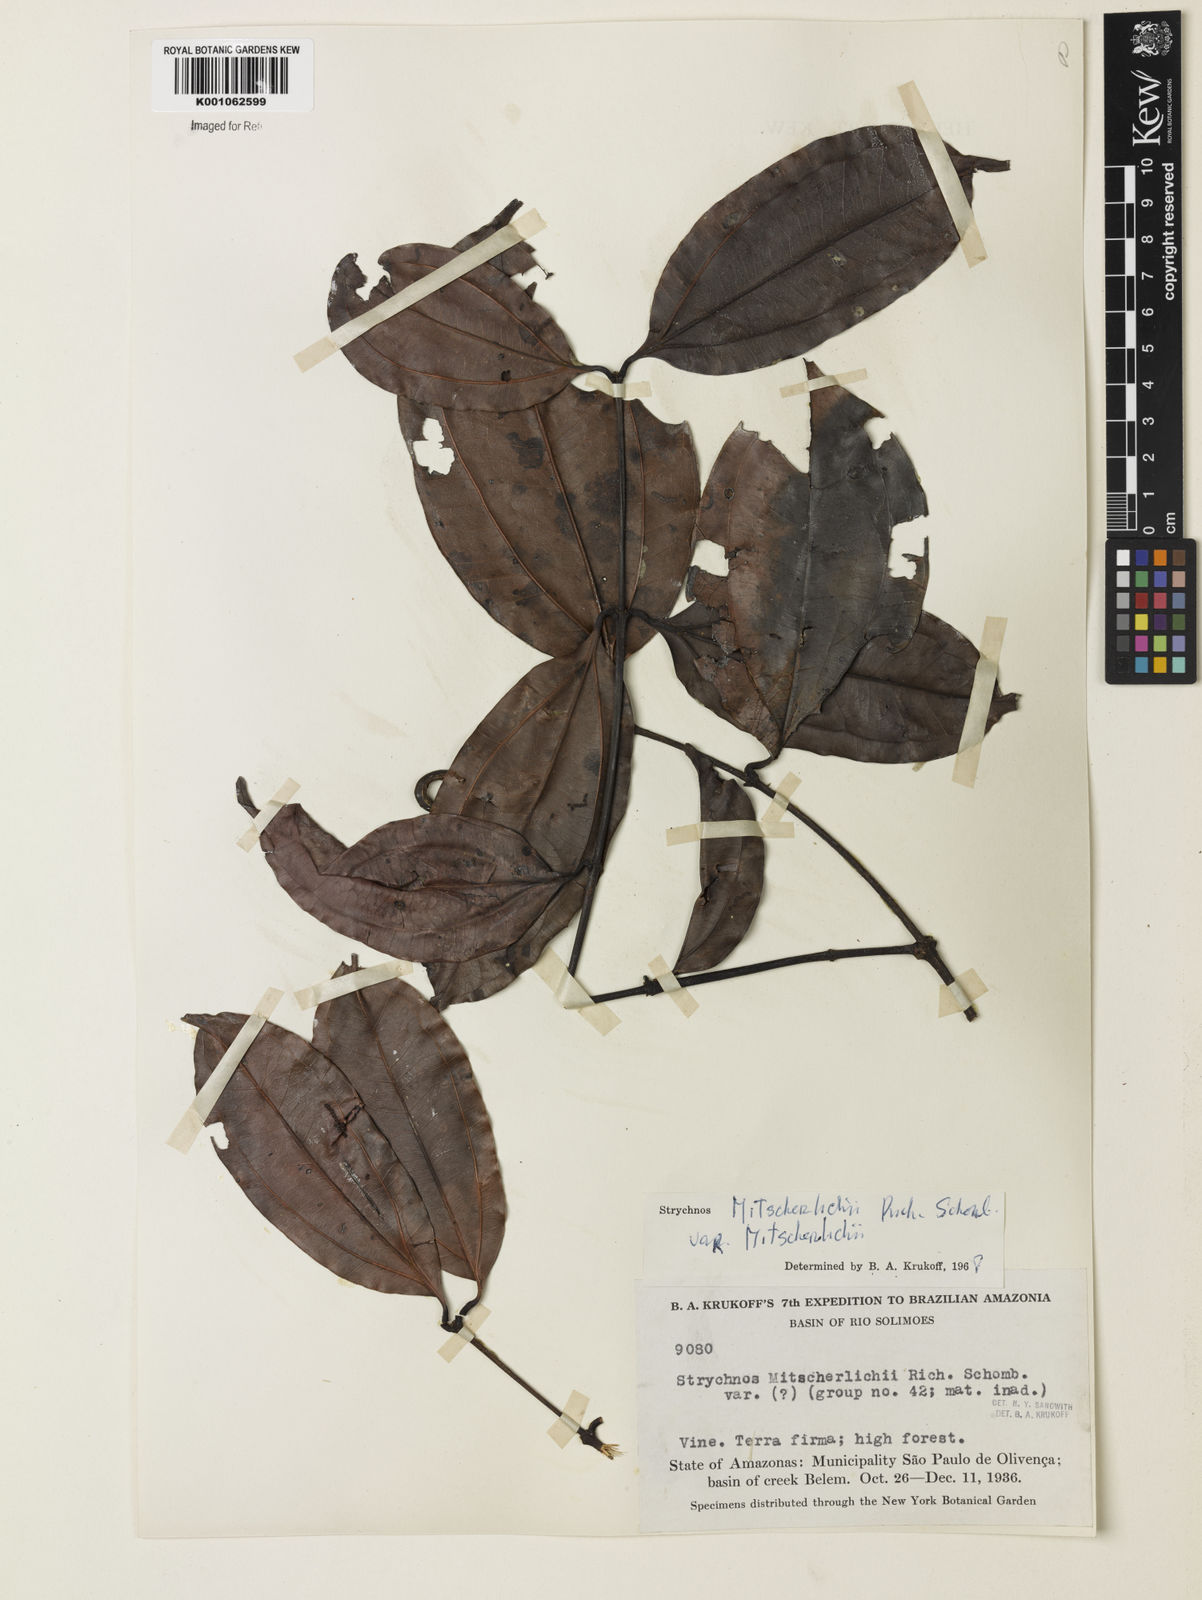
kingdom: Plantae
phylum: Tracheophyta
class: Magnoliopsida
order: Gentianales
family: Loganiaceae
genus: Strychnos
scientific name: Strychnos mitscherlichii
